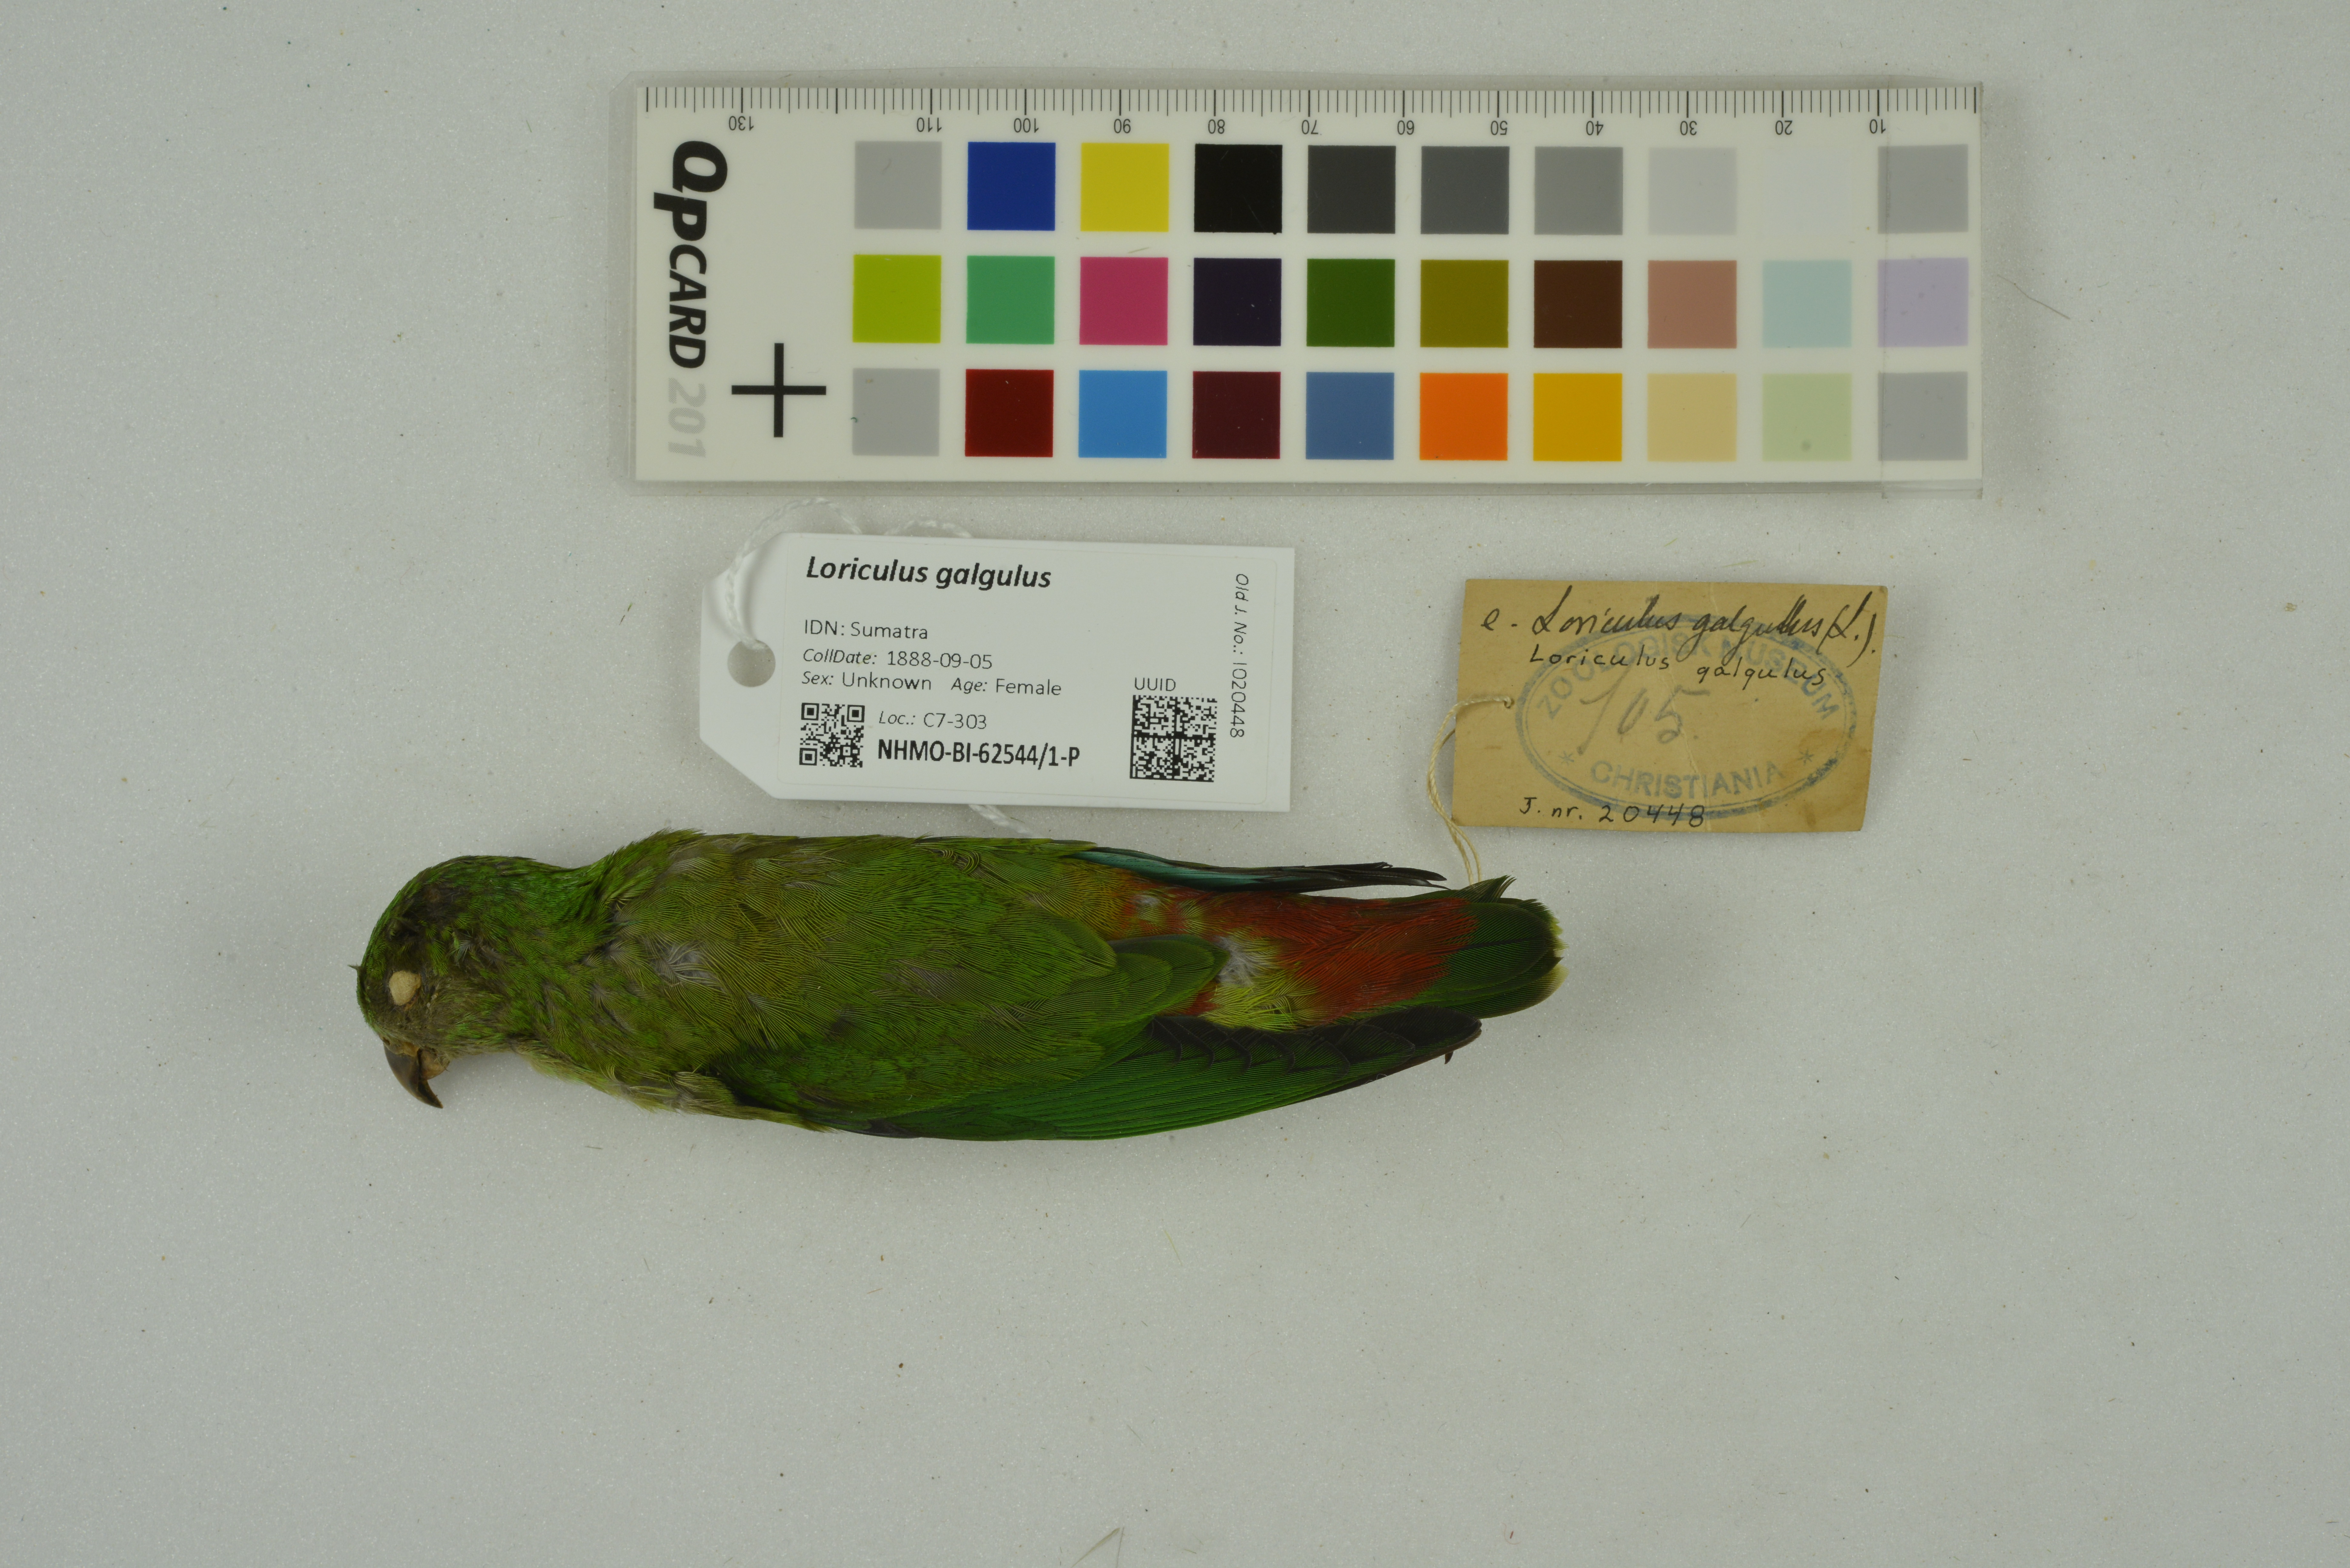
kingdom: Animalia
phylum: Chordata
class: Aves
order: Psittaciformes
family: Psittacidae
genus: Loriculus
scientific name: Loriculus galgulus
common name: Blue-crowned hanging parrot
